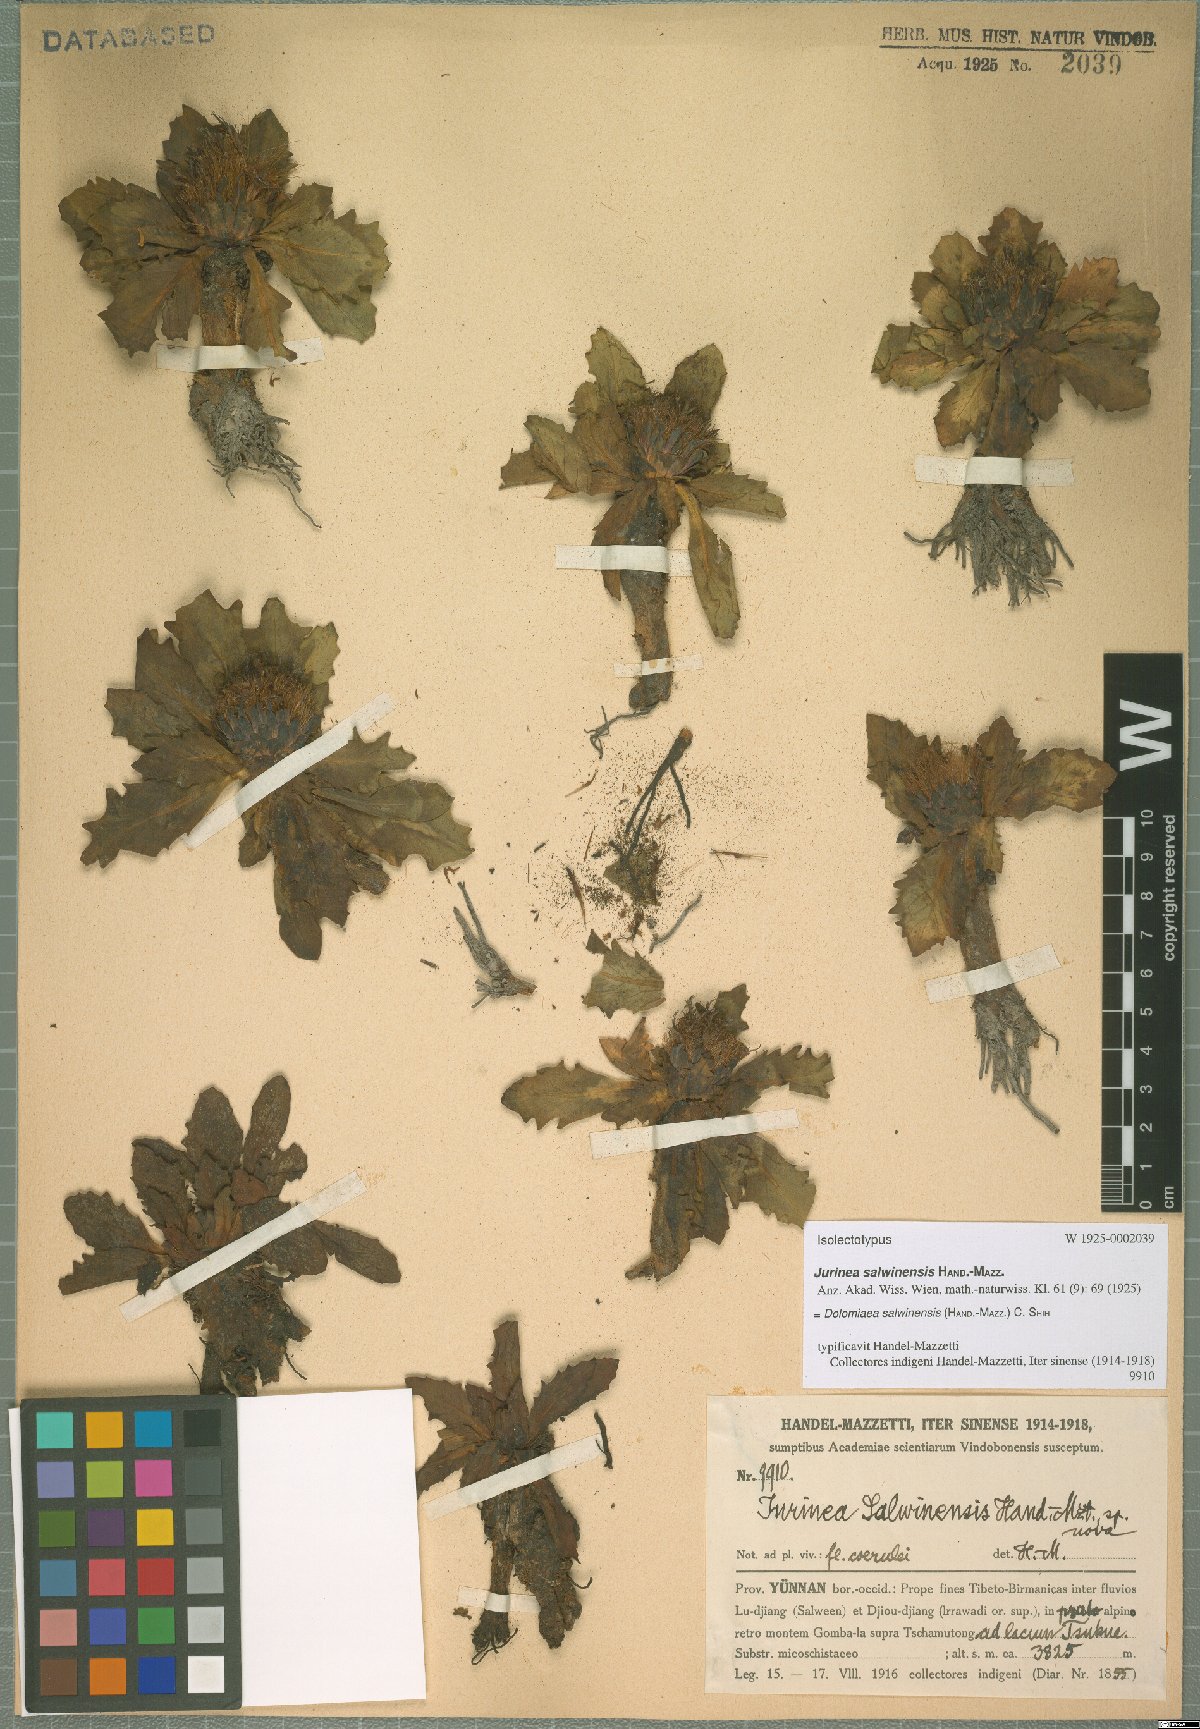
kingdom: Plantae
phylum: Tracheophyta
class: Magnoliopsida
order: Asterales
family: Asteraceae
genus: Dolomiaea
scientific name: Dolomiaea salwinensis
